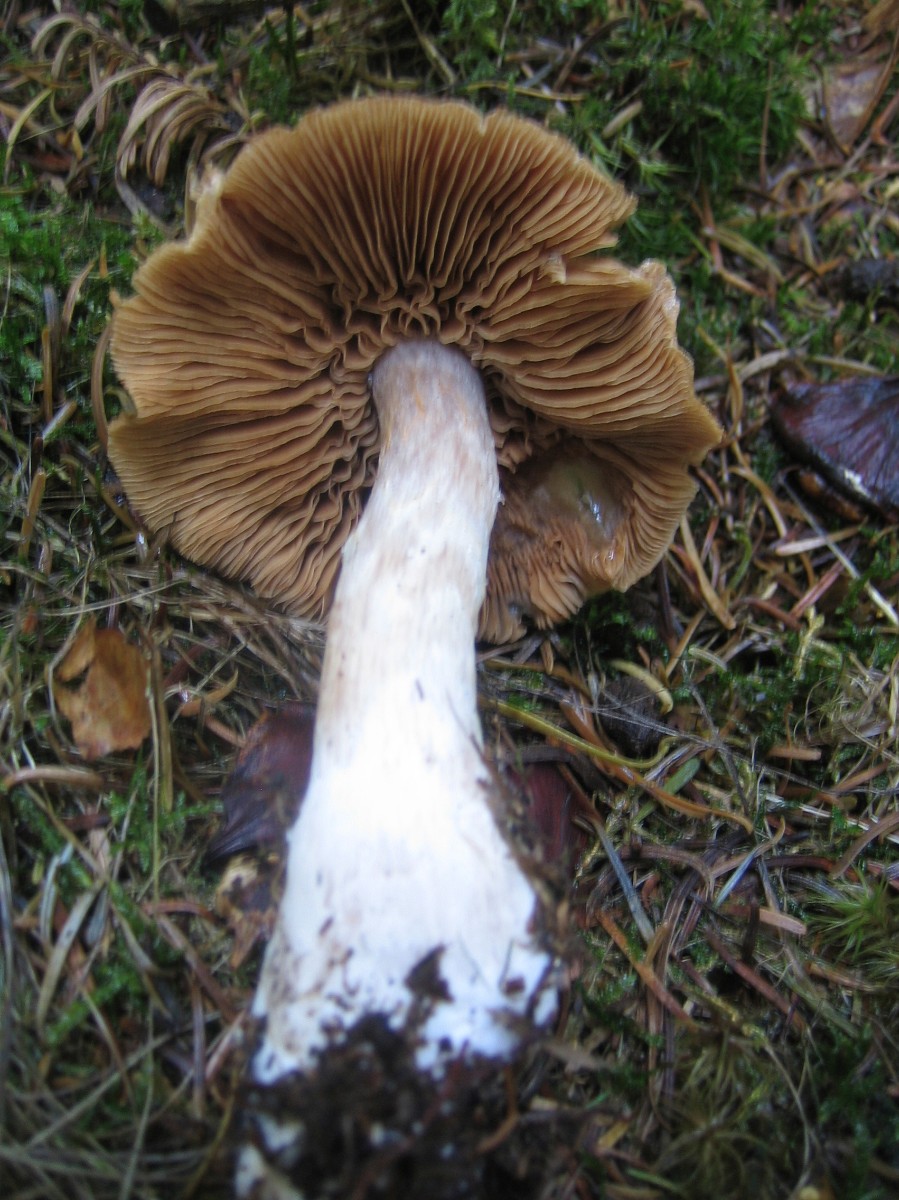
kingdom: Fungi
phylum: Basidiomycota
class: Agaricomycetes
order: Agaricales
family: Cortinariaceae
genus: Cortinarius
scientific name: Cortinarius
